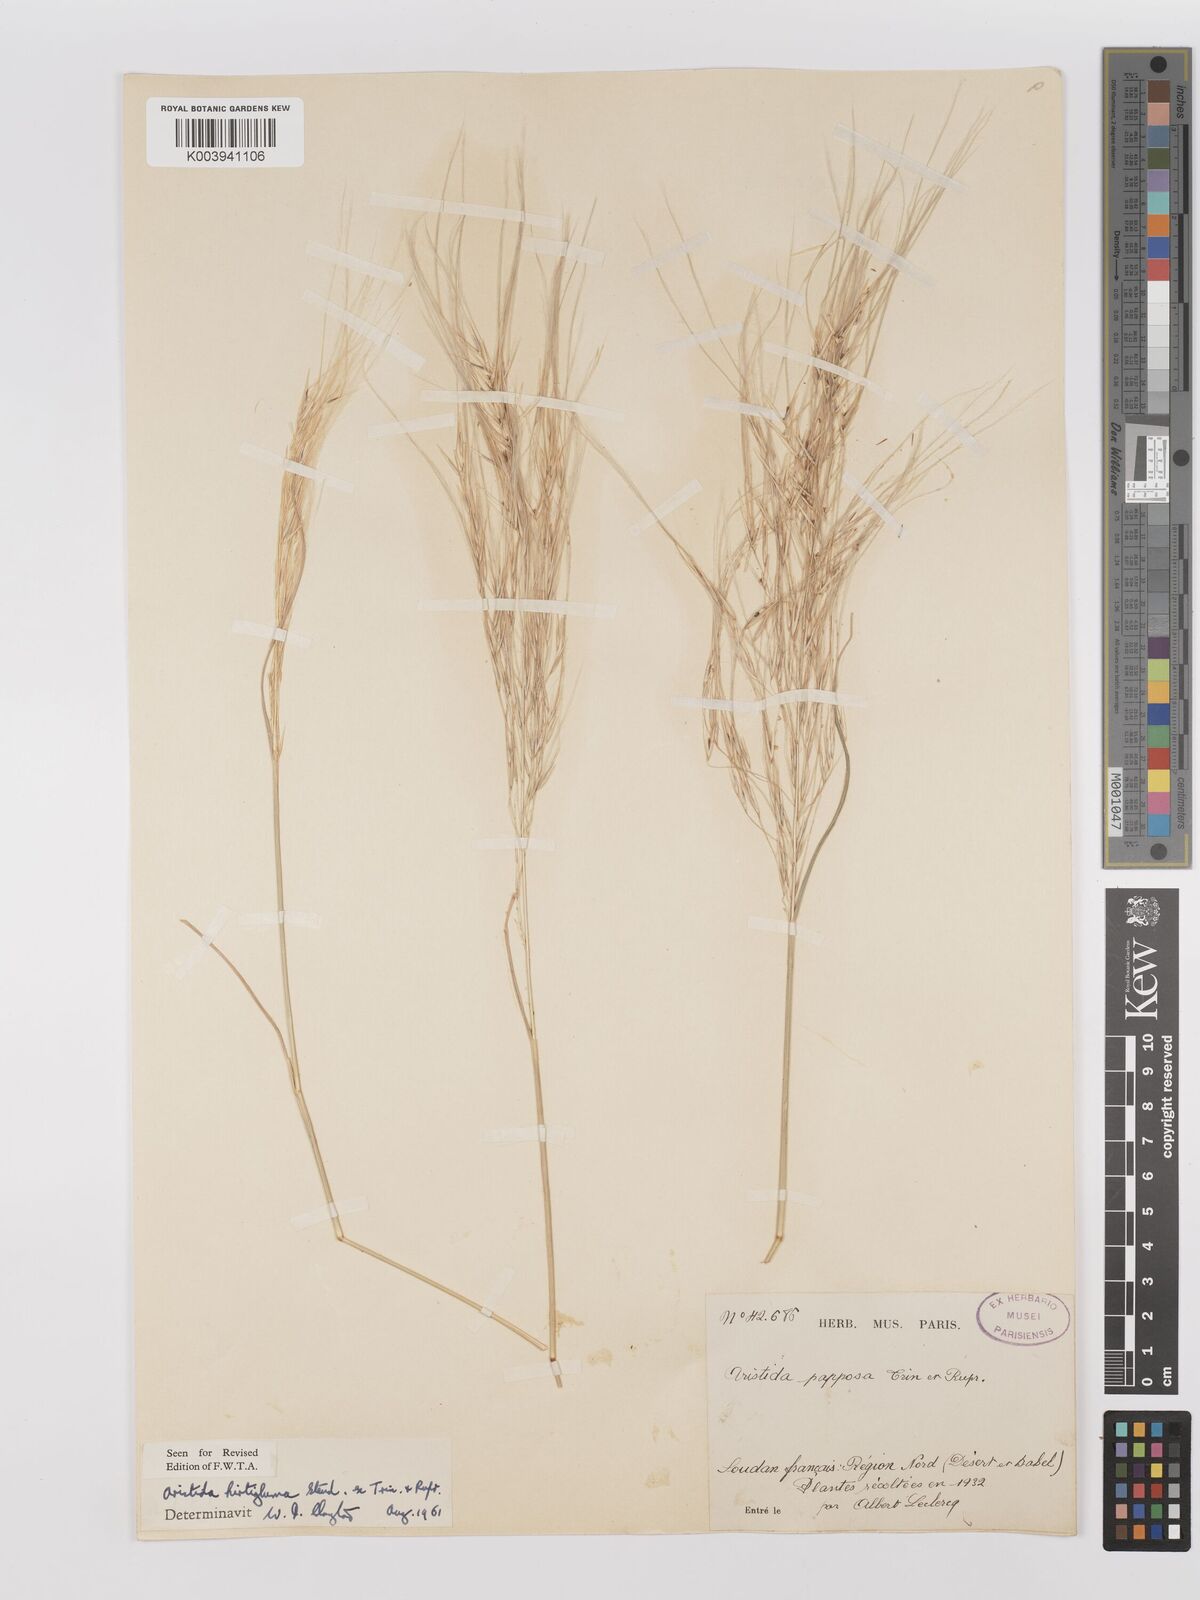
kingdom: Plantae
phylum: Tracheophyta
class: Liliopsida
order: Poales
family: Poaceae
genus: Stipagrostis
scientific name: Stipagrostis hirtigluma
